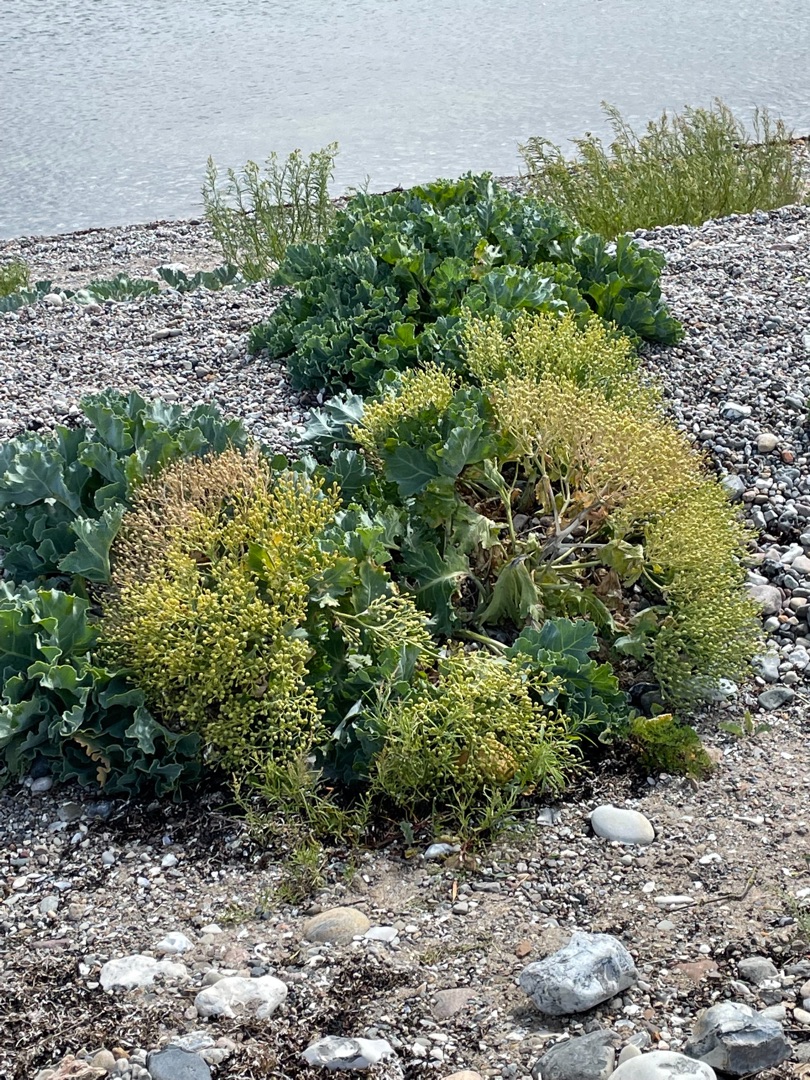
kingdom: Plantae
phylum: Tracheophyta
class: Magnoliopsida
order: Brassicales
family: Brassicaceae
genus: Crambe
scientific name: Crambe maritima
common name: Strandkål
